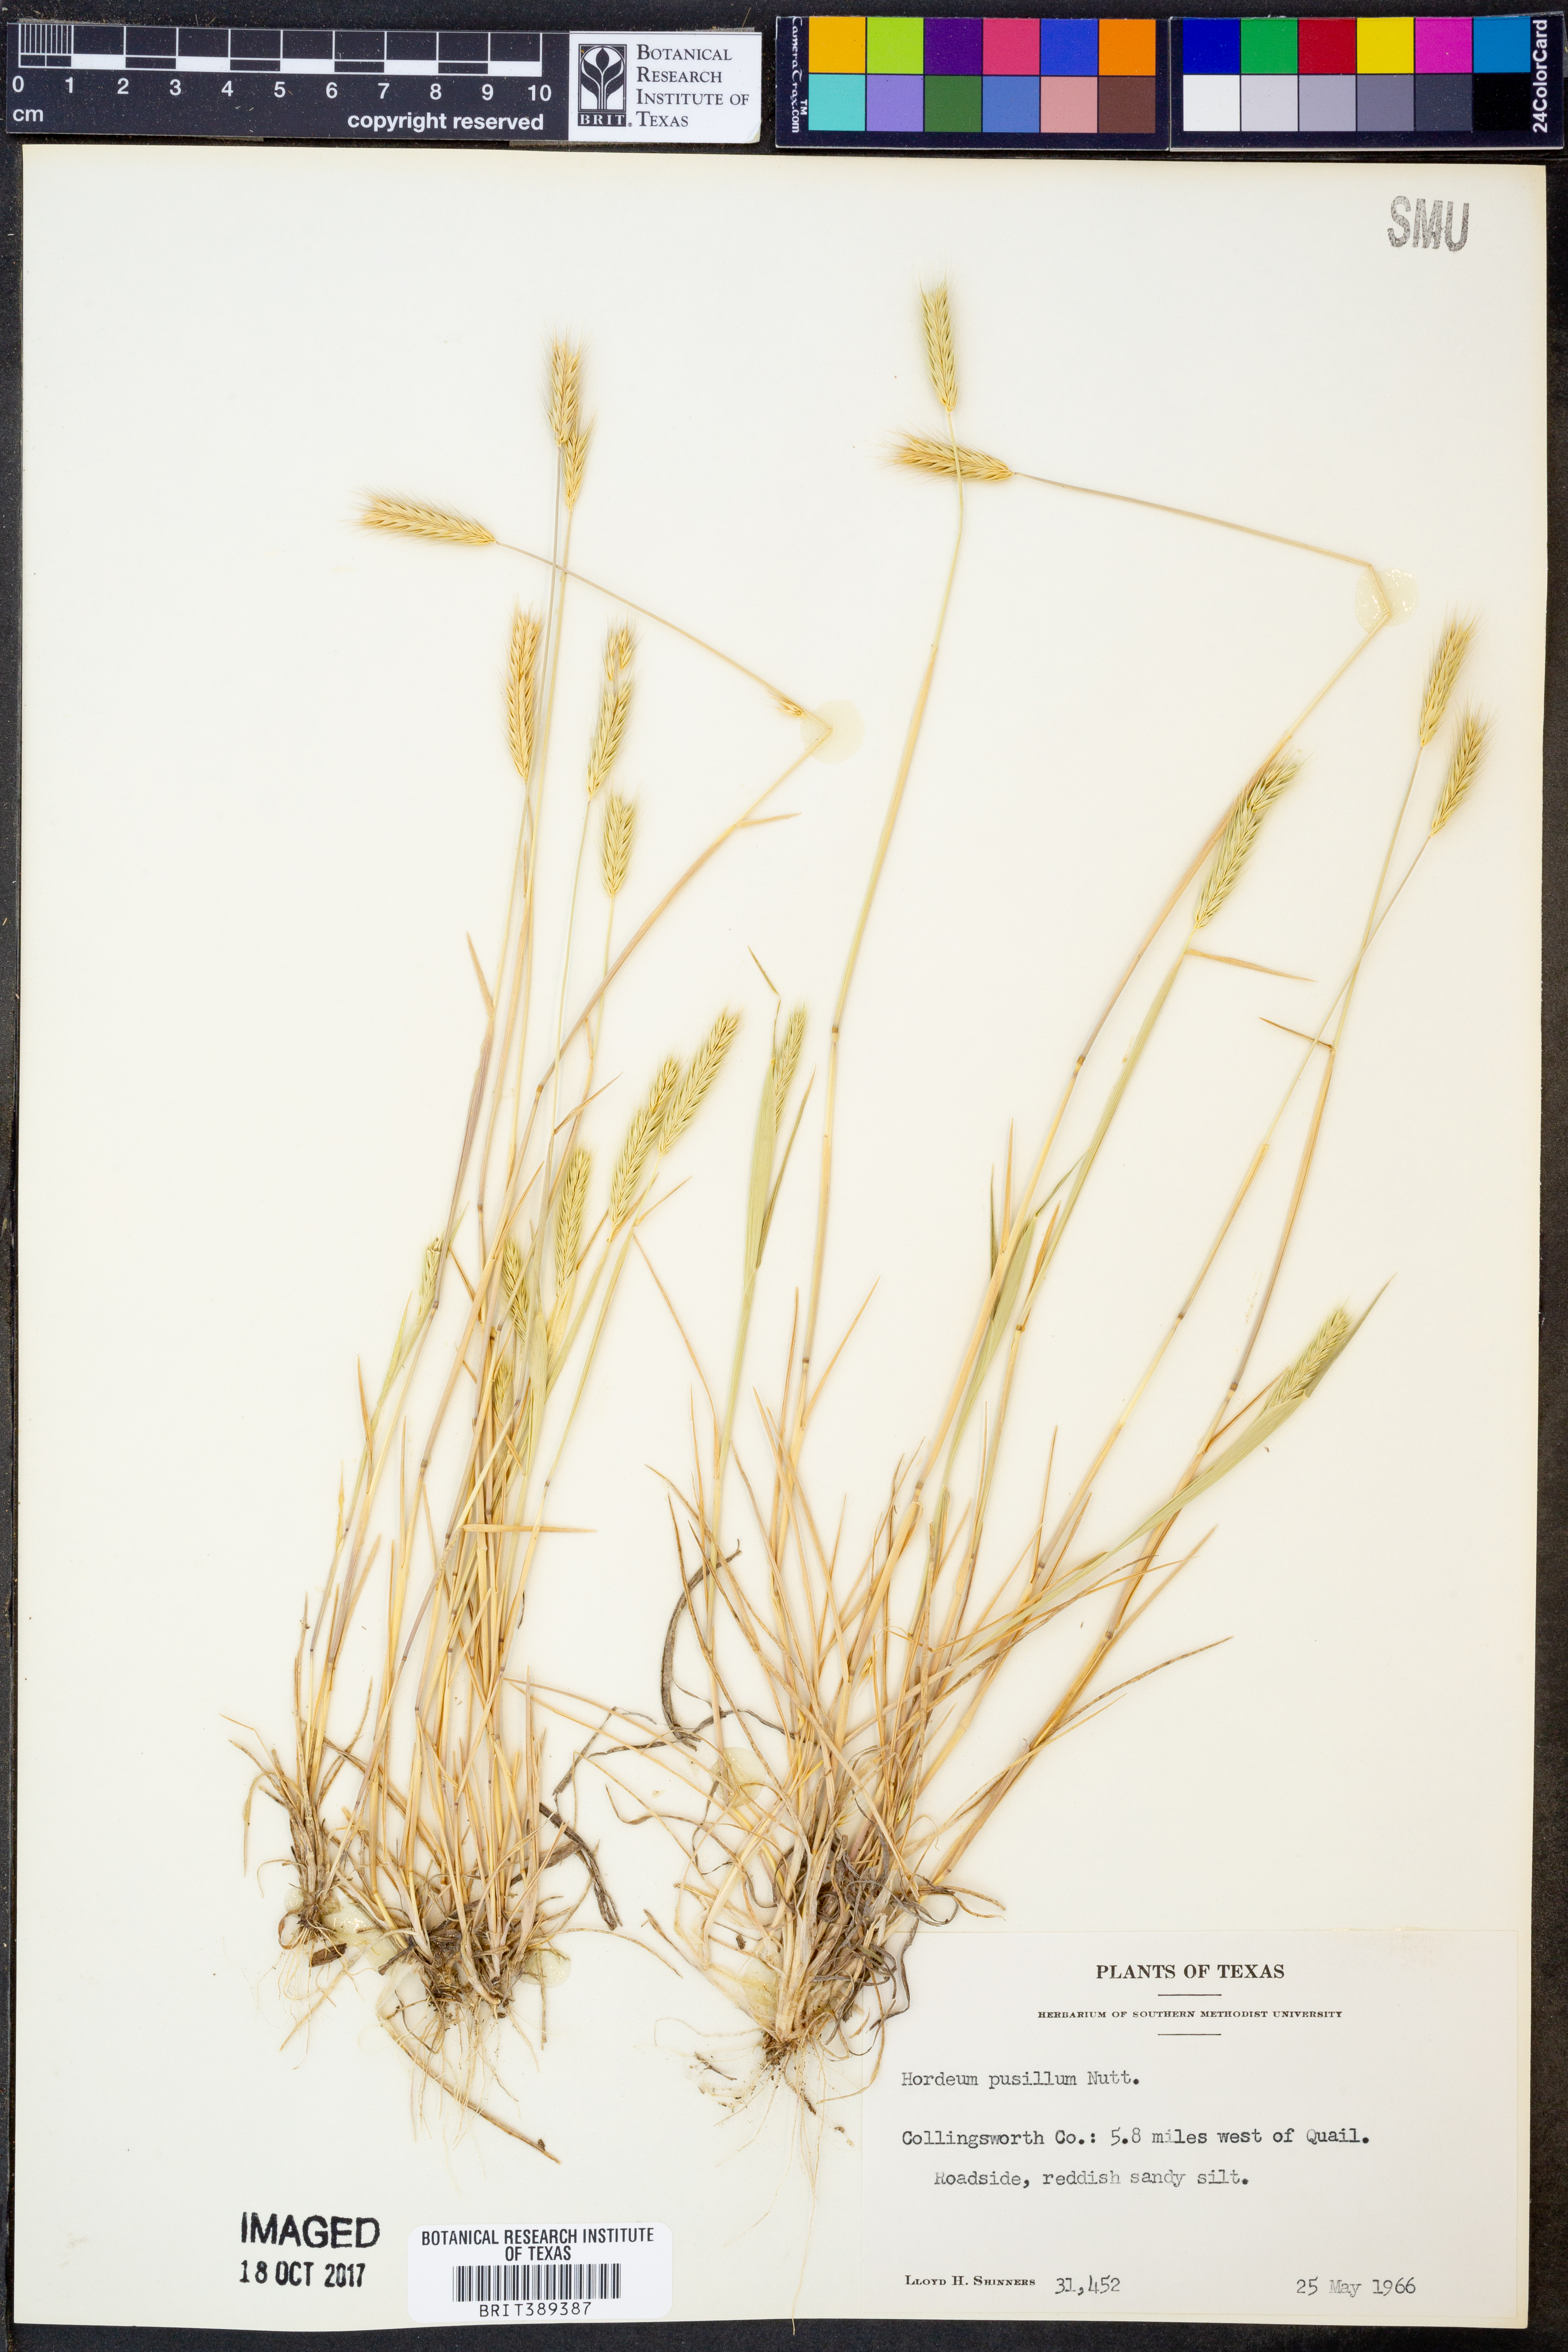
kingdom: Plantae
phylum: Tracheophyta
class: Liliopsida
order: Poales
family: Poaceae
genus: Hordeum
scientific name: Hordeum pusillum
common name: Little barley
